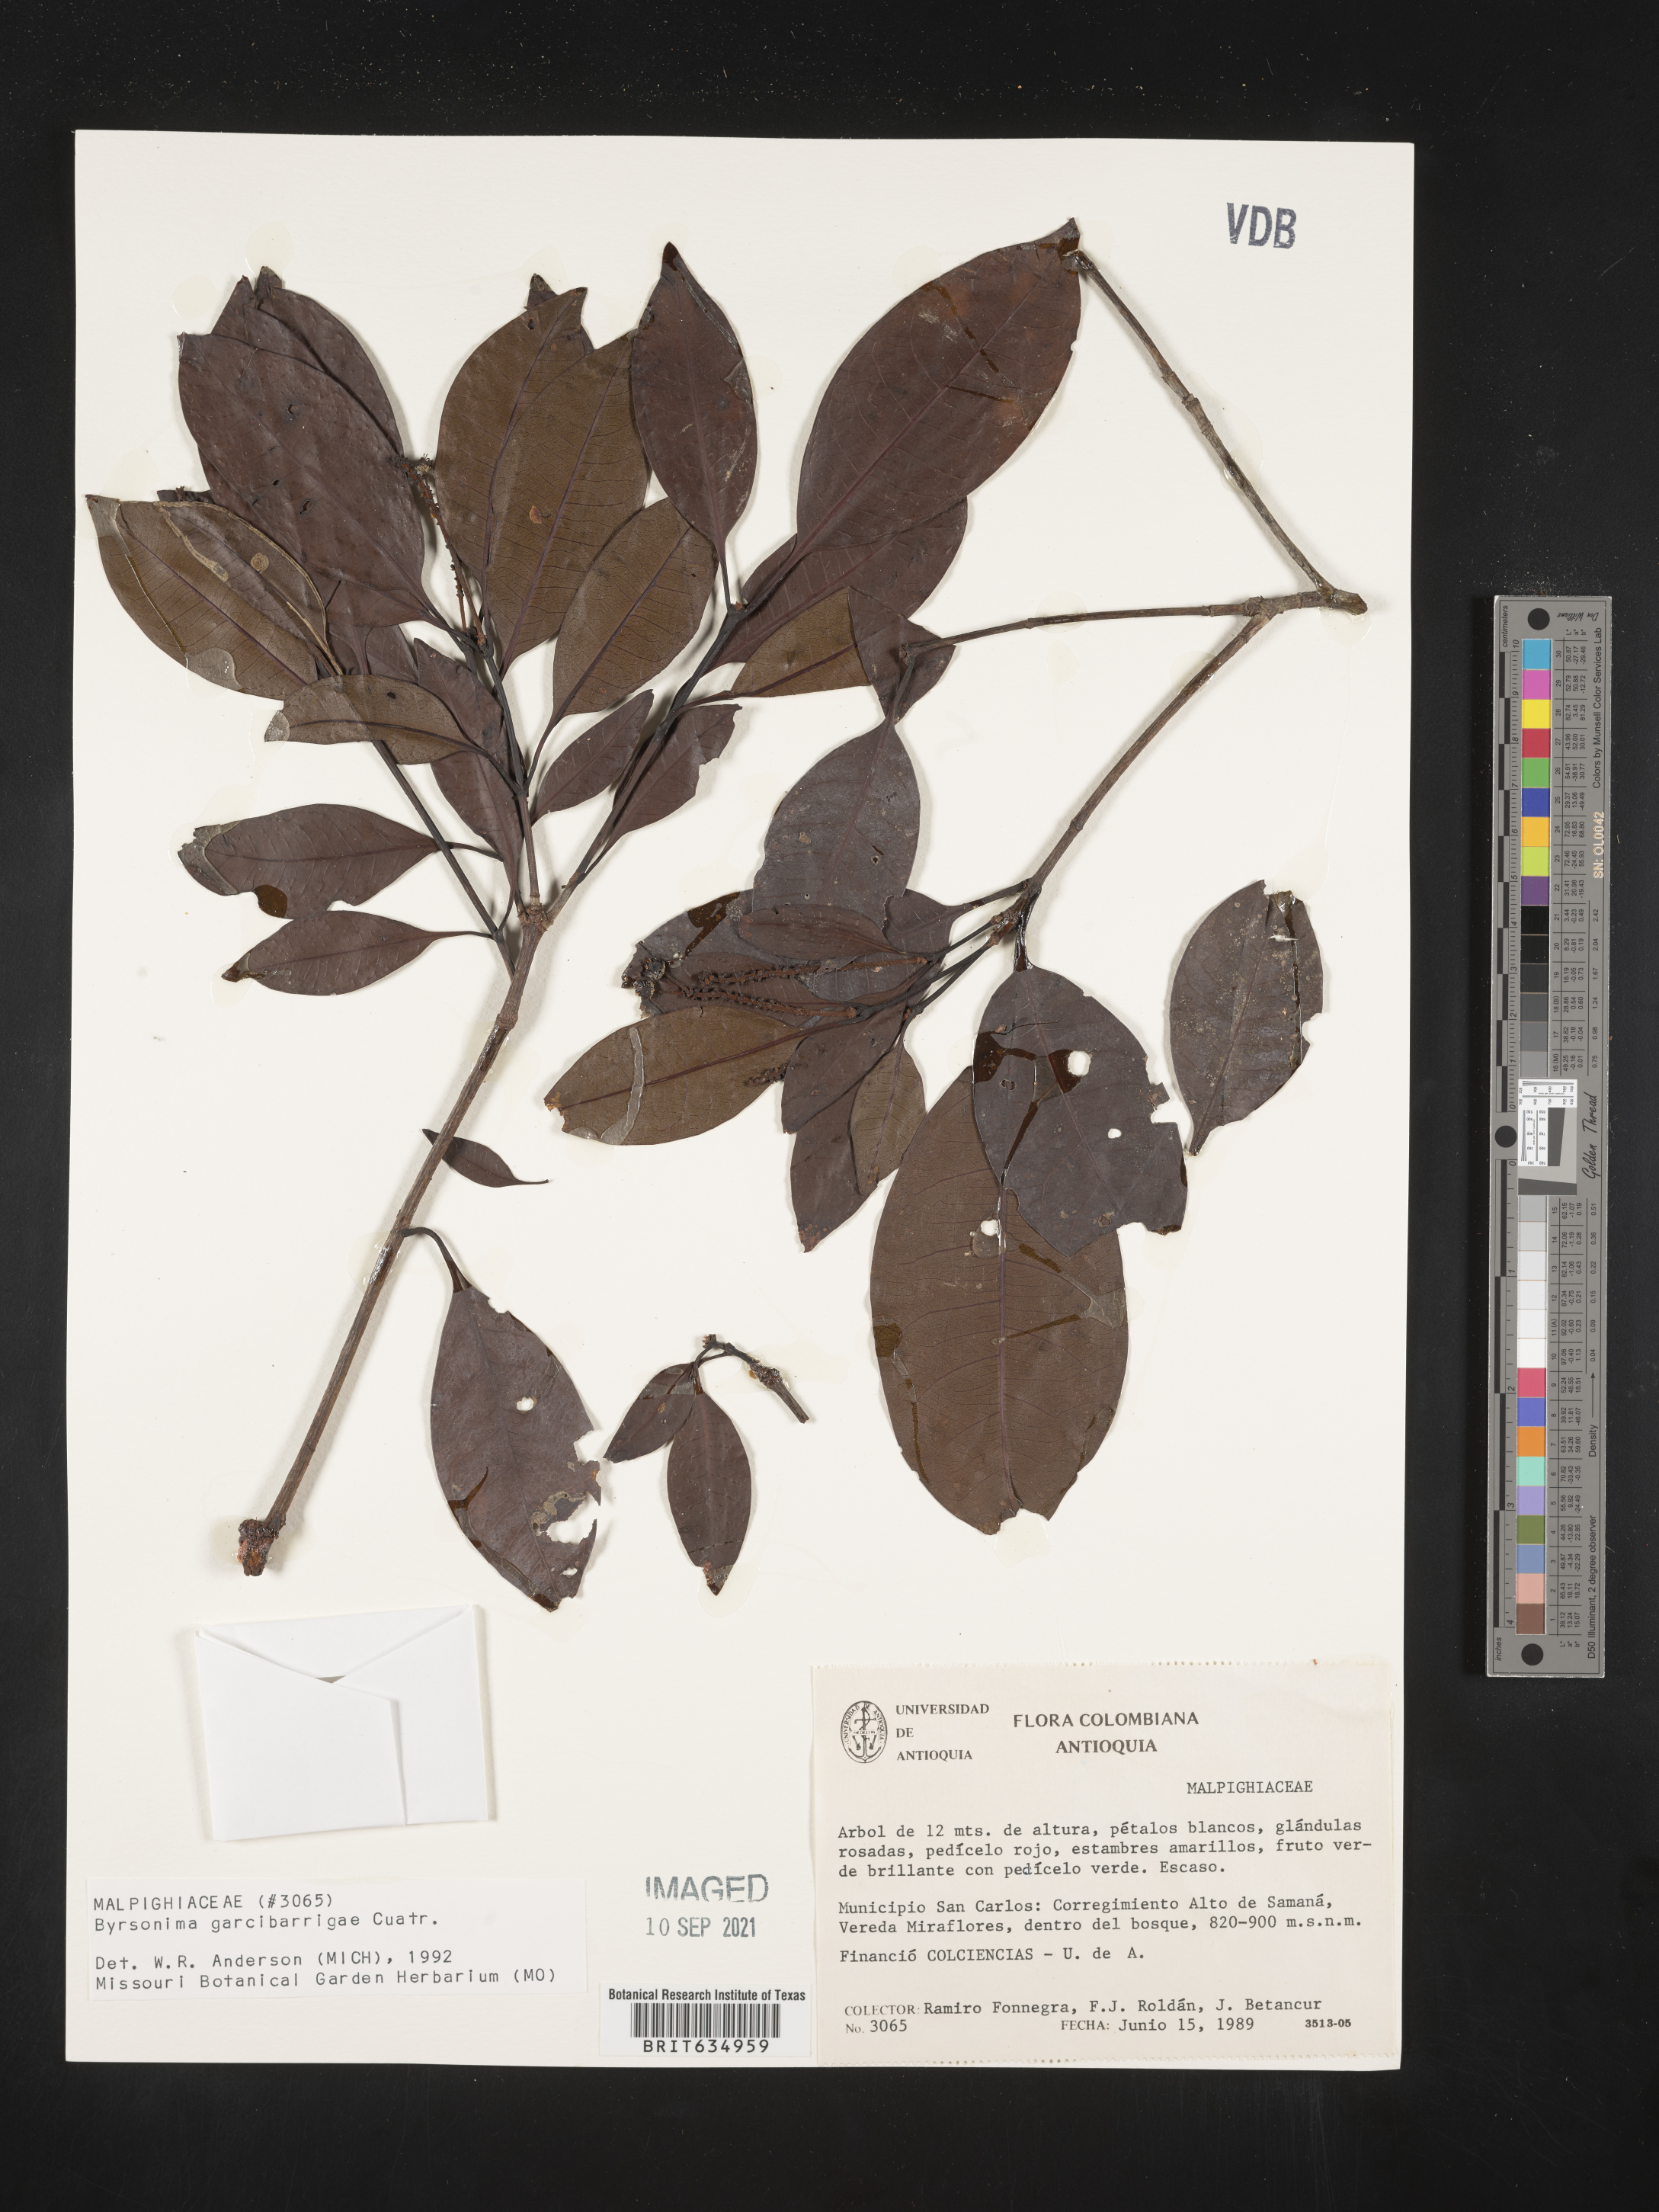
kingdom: Plantae
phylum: Tracheophyta
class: Magnoliopsida
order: Malpighiales
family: Malpighiaceae
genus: Byrsonima
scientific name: Byrsonima
